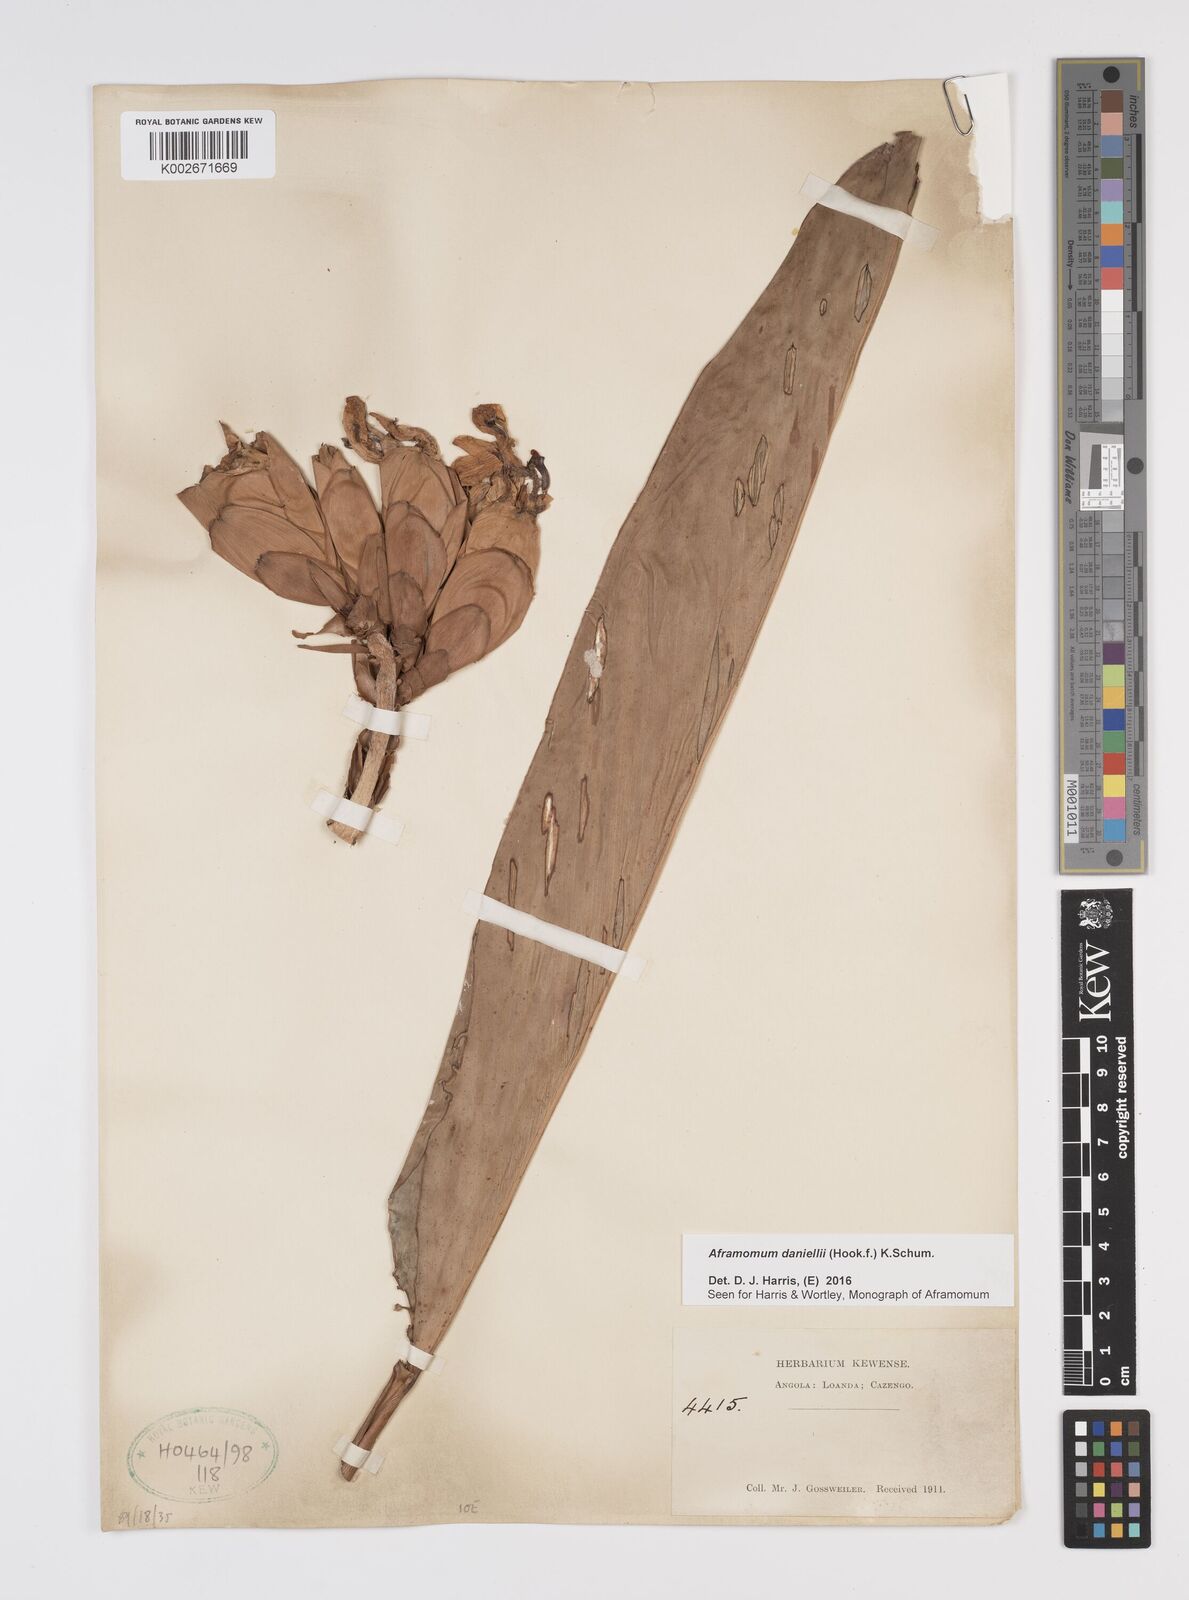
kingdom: Plantae
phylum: Tracheophyta
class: Liliopsida
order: Zingiberales
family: Zingiberaceae
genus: Aframomum
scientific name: Aframomum
